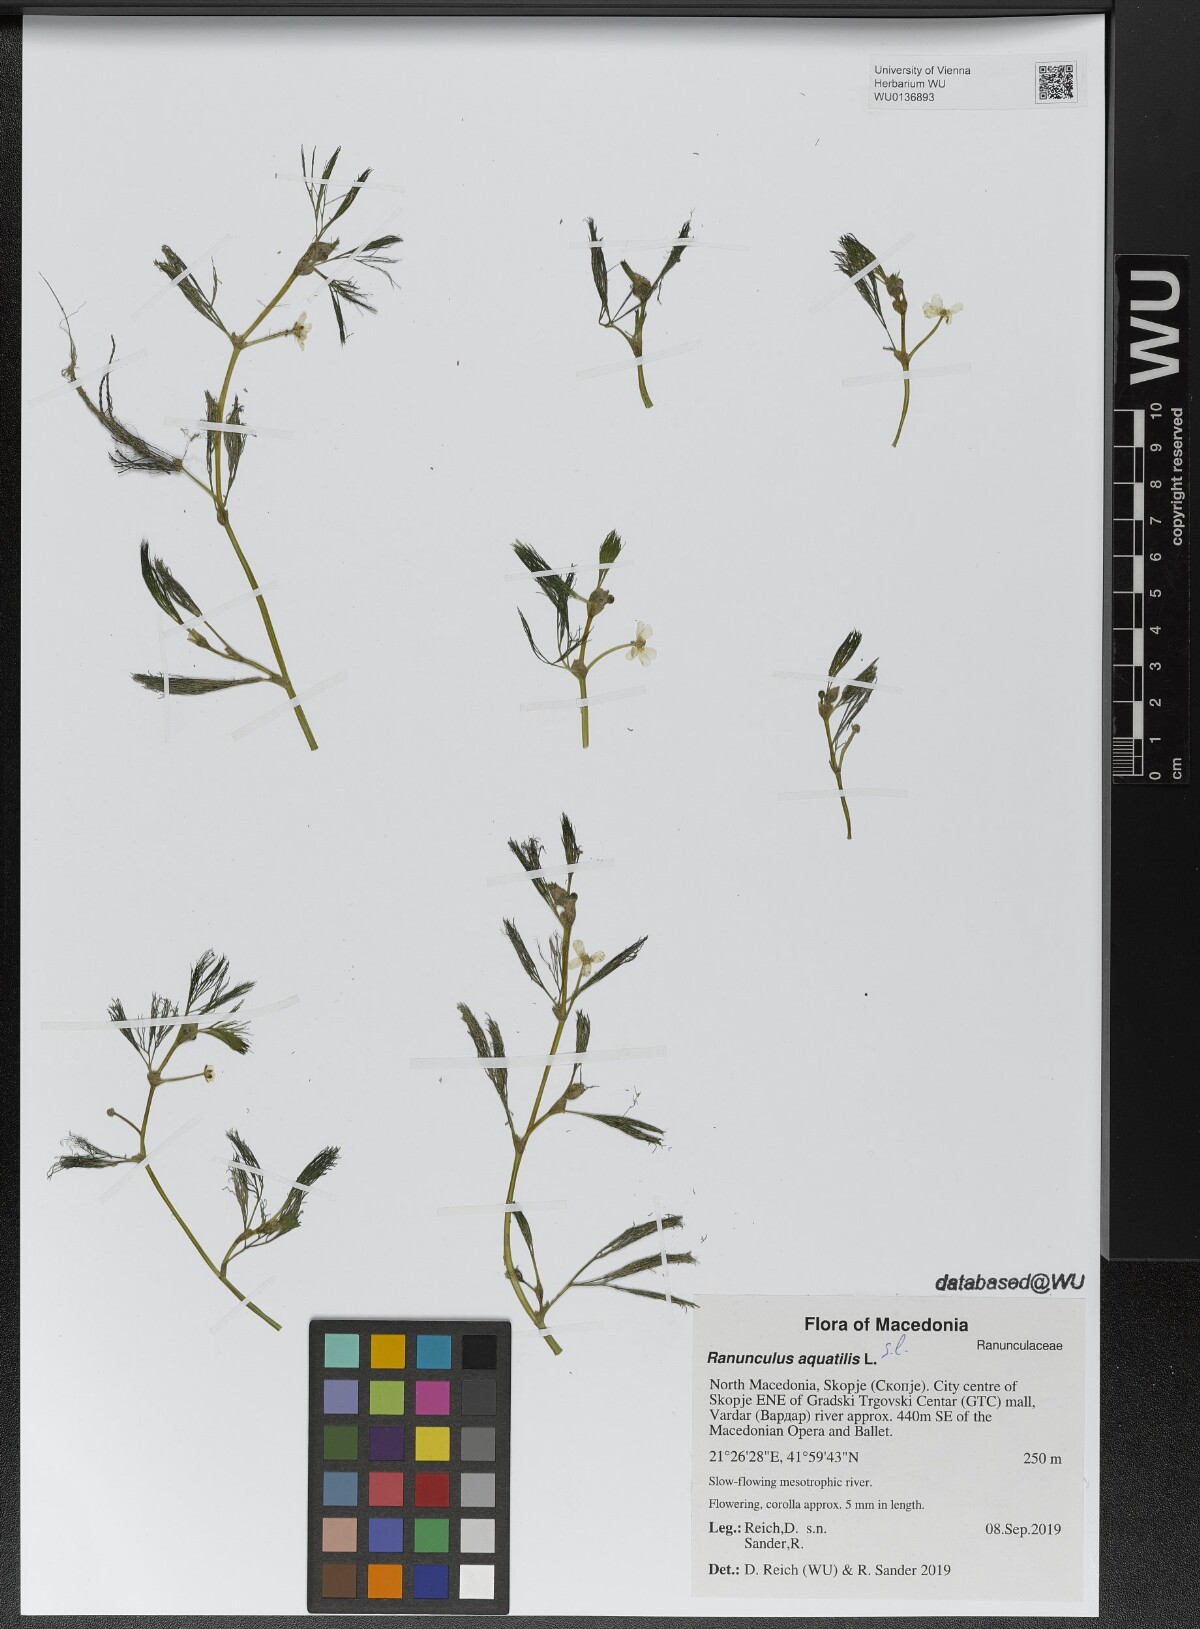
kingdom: Plantae
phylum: Tracheophyta
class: Magnoliopsida
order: Ranunculales
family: Ranunculaceae
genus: Ranunculus
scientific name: Ranunculus aquatilis
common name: Common water-crowfoot
